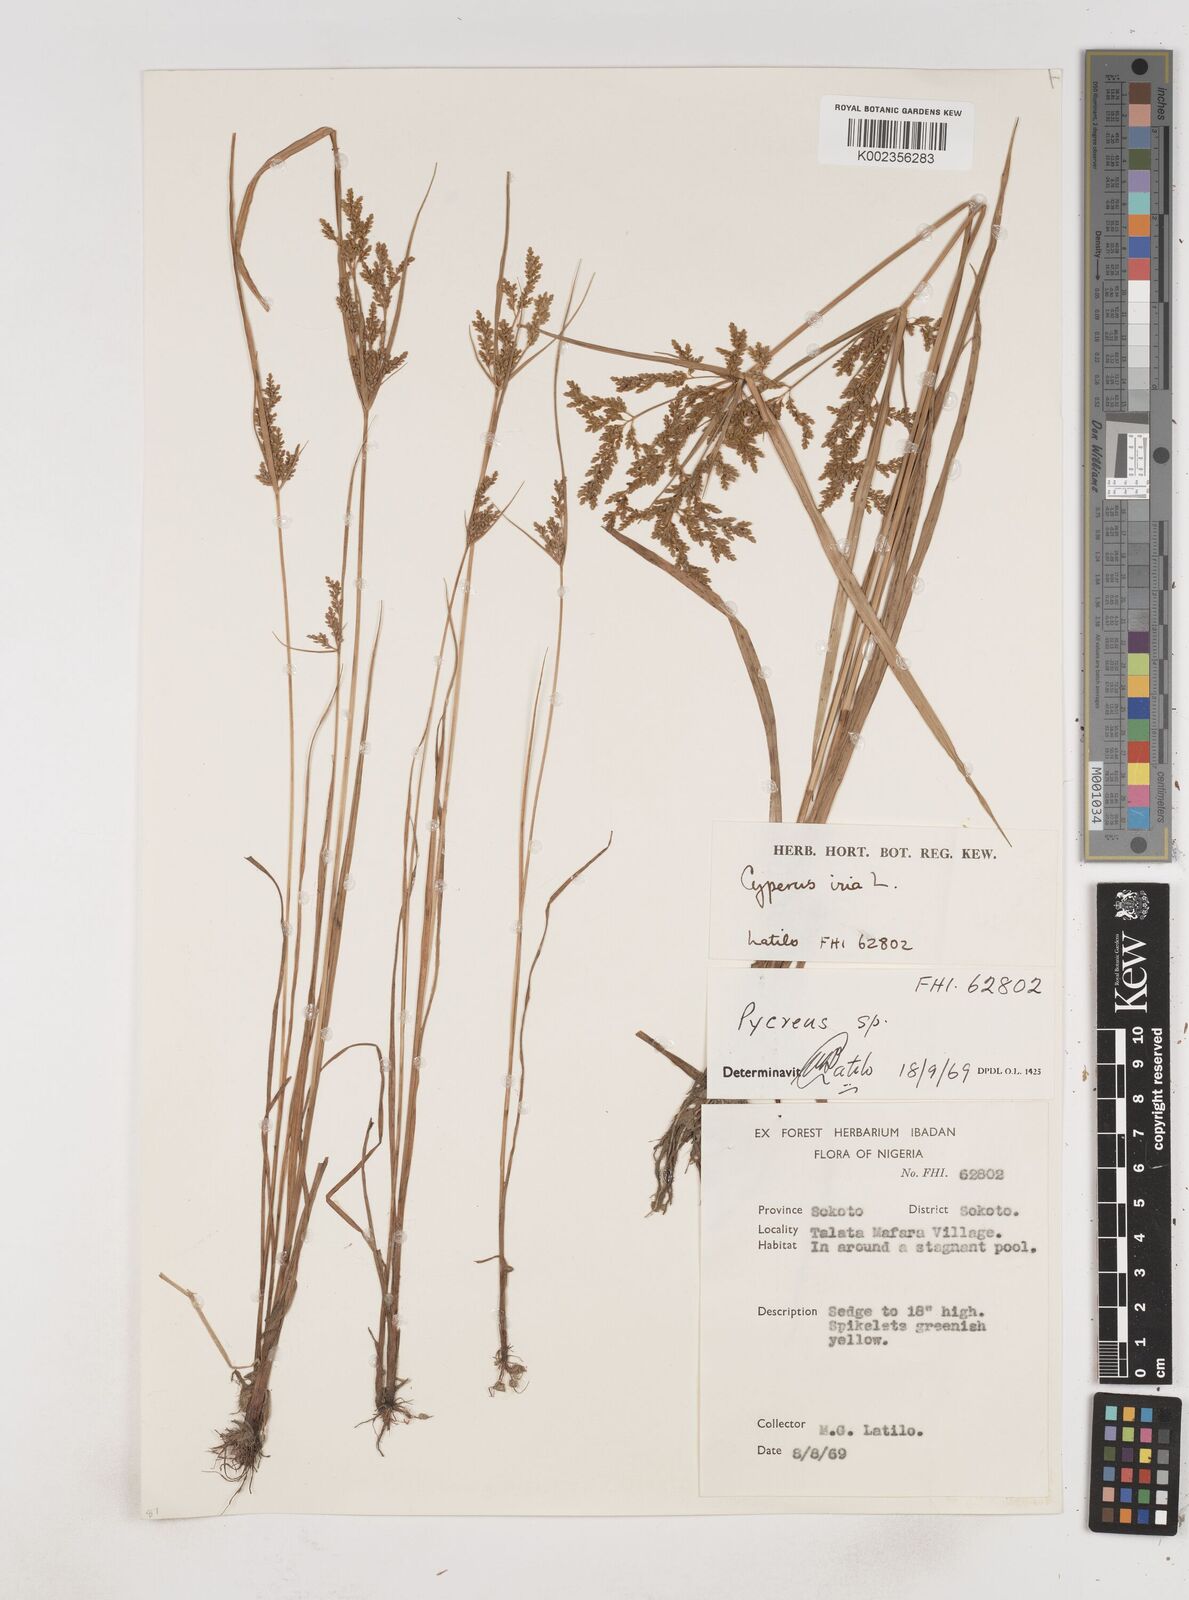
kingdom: Plantae
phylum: Tracheophyta
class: Liliopsida
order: Poales
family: Cyperaceae
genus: Cyperus
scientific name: Cyperus iria
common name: Ricefield flatsedge
